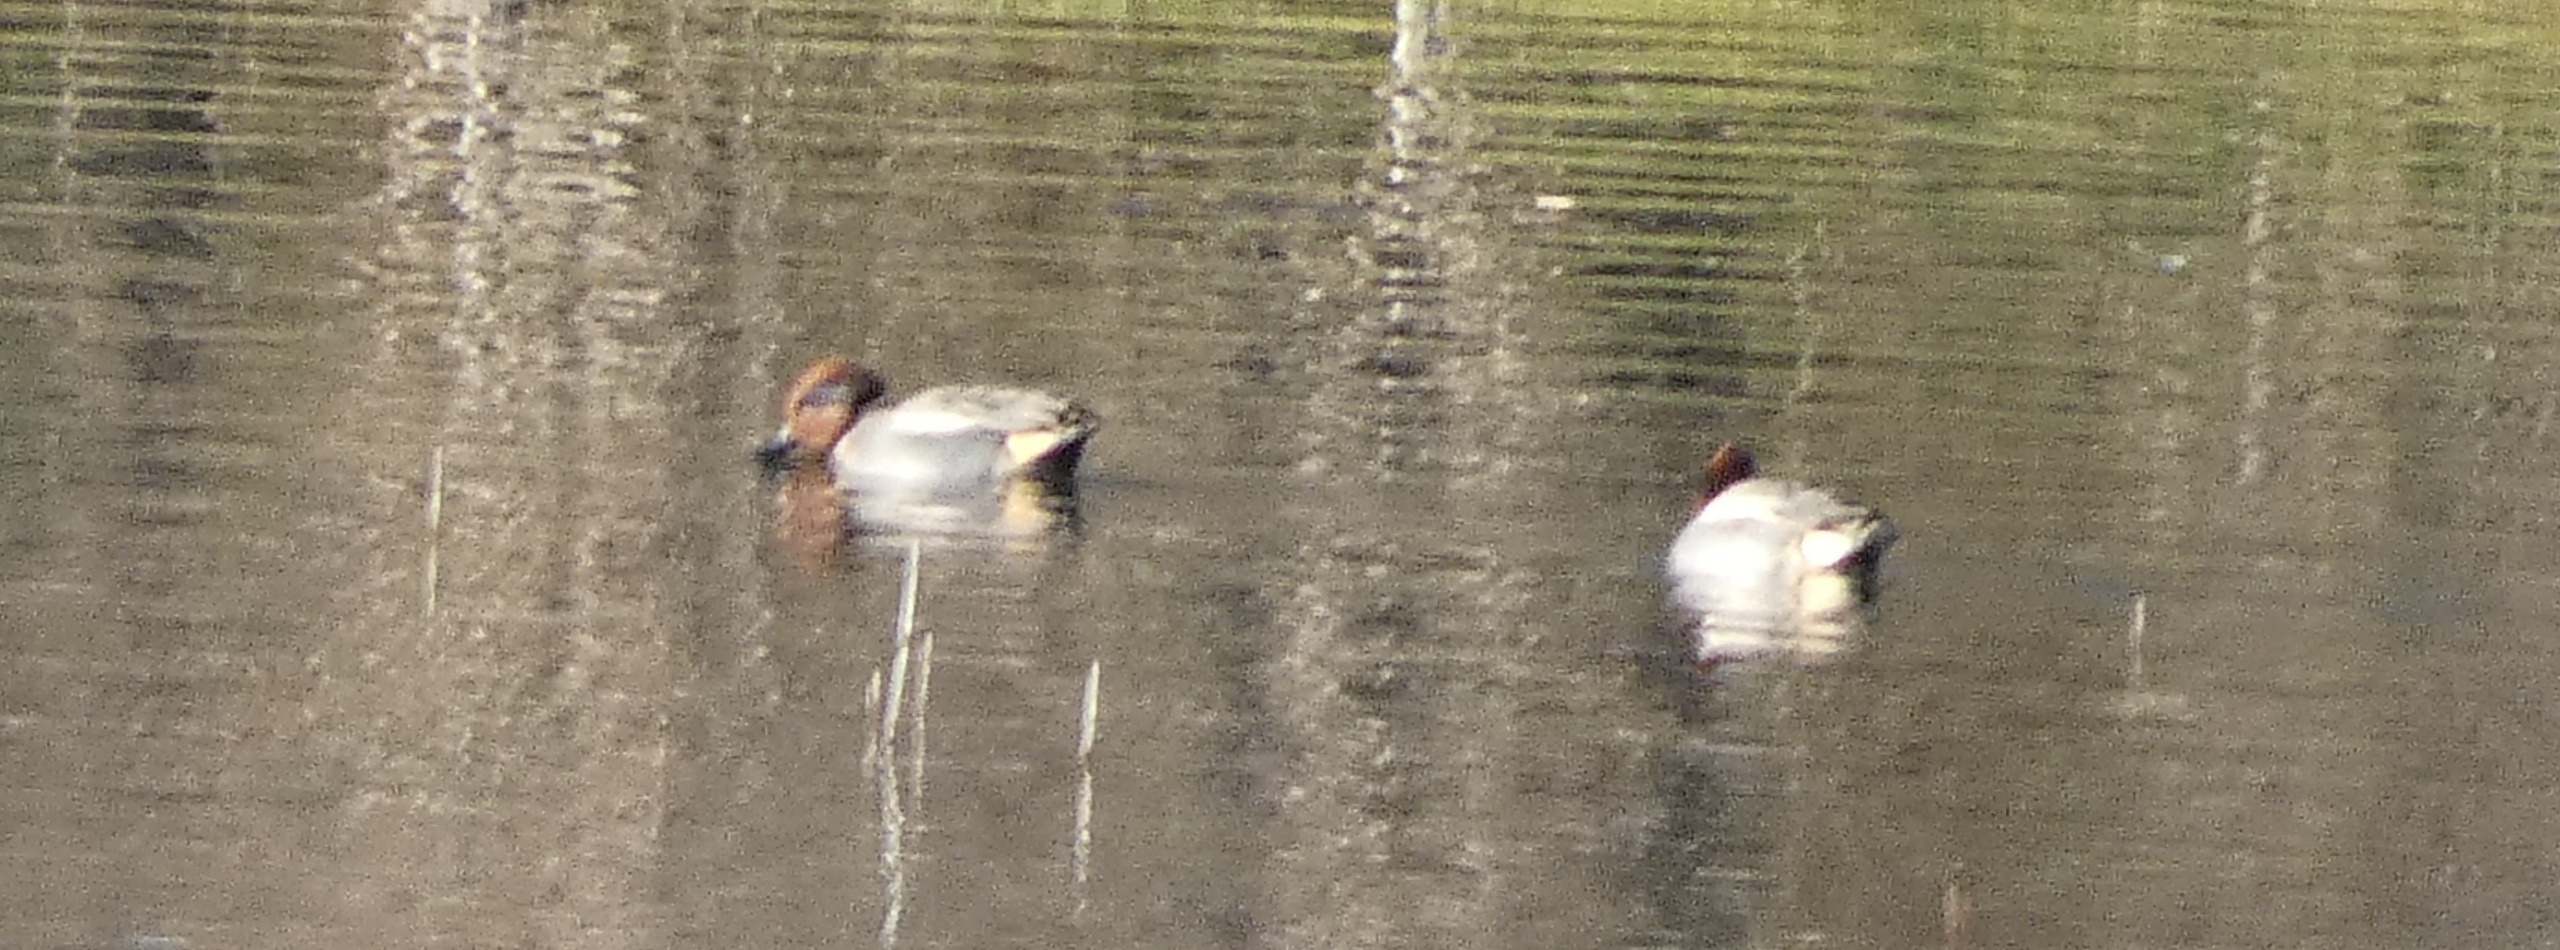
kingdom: Animalia
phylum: Chordata
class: Aves
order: Anseriformes
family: Anatidae
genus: Anas
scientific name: Anas crecca
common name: Krikand
